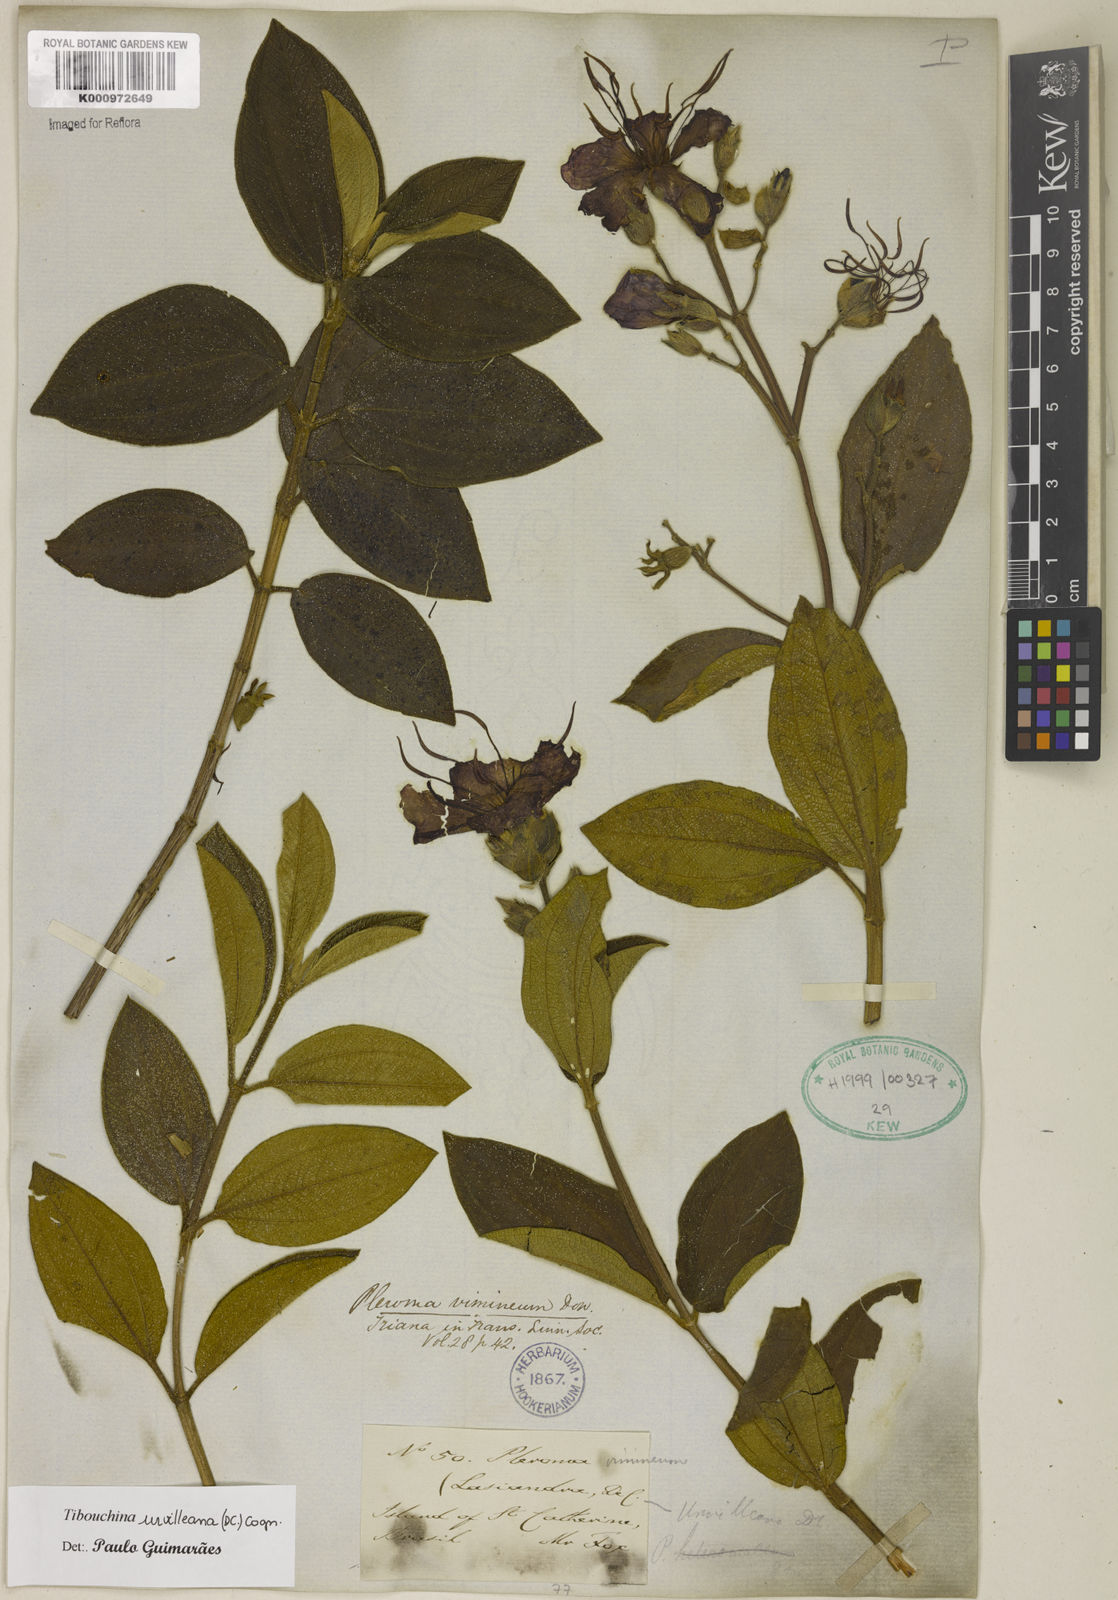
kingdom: Plantae
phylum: Tracheophyta
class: Magnoliopsida
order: Myrtales
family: Melastomataceae
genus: Pleroma
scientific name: Pleroma urvilleanum
